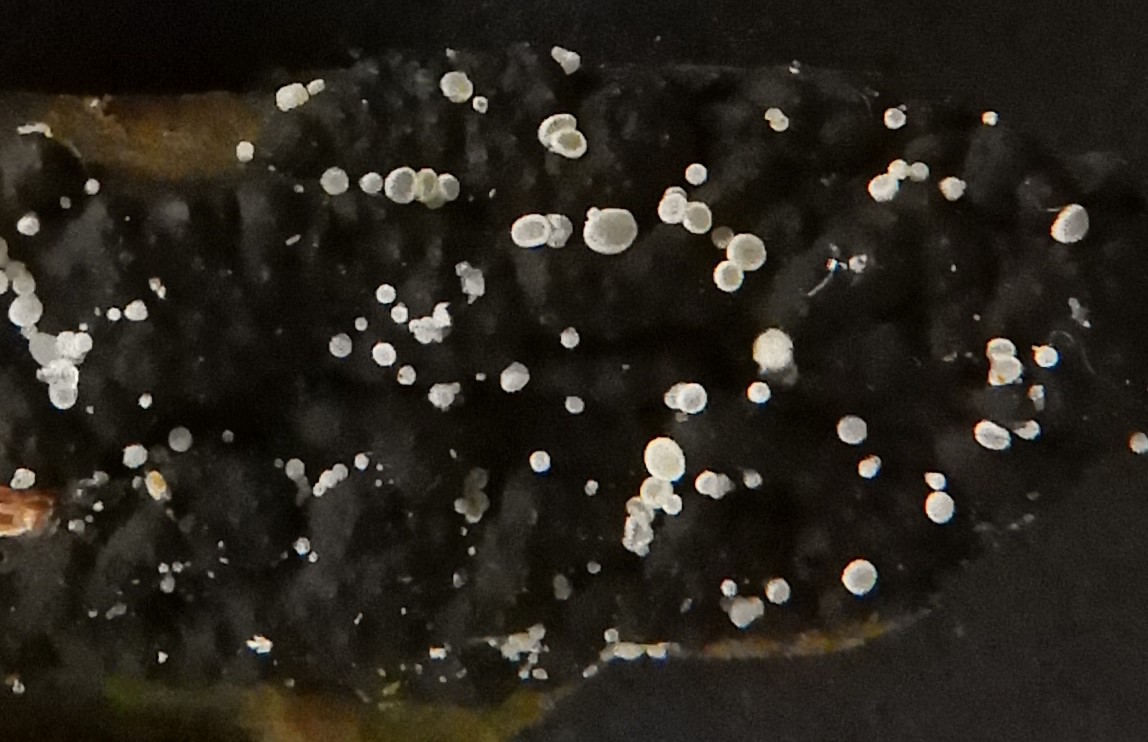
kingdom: Fungi
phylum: Ascomycota
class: Leotiomycetes
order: Helotiales
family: Hyaloscyphaceae
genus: Polydesmia
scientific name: Polydesmia pruinosa
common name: dunskive
